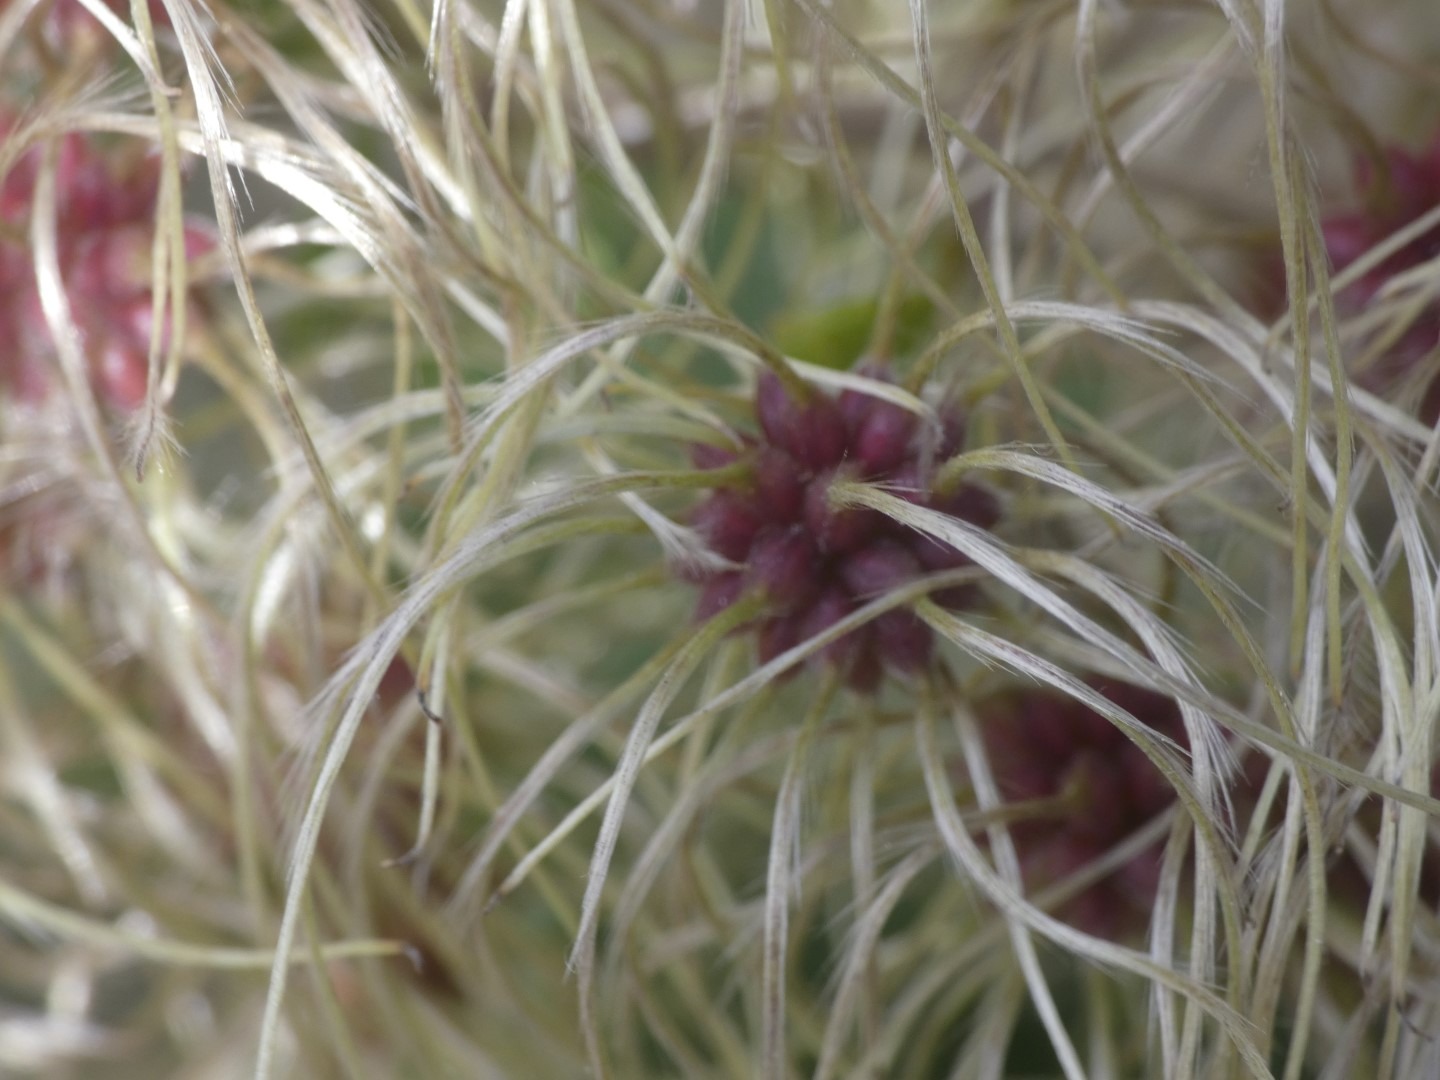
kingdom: Plantae
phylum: Tracheophyta
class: Magnoliopsida
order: Ranunculales
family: Ranunculaceae
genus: Clematis
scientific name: Clematis vitalba
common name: Skovranke
